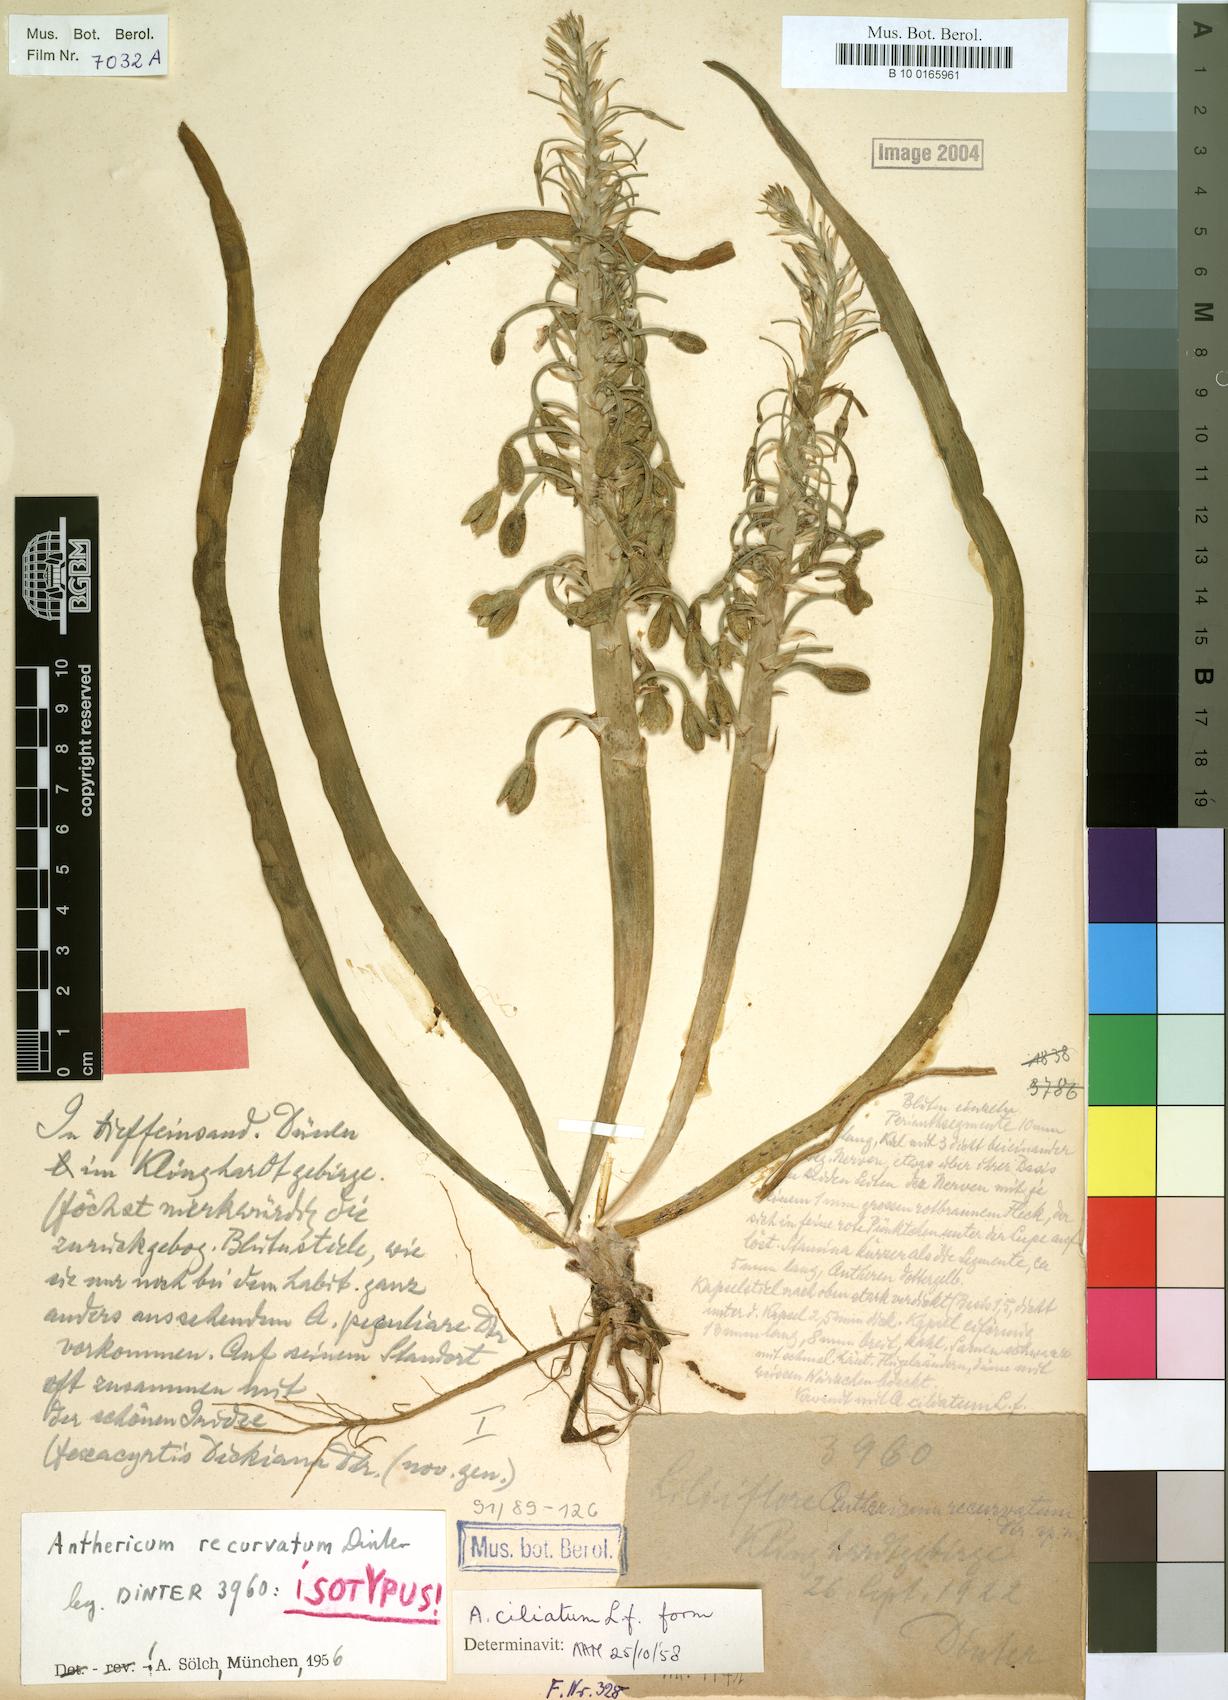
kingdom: Plantae
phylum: Tracheophyta
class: Liliopsida
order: Asparagales
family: Asphodelaceae
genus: Trachyandra
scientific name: Trachyandra ciliata
